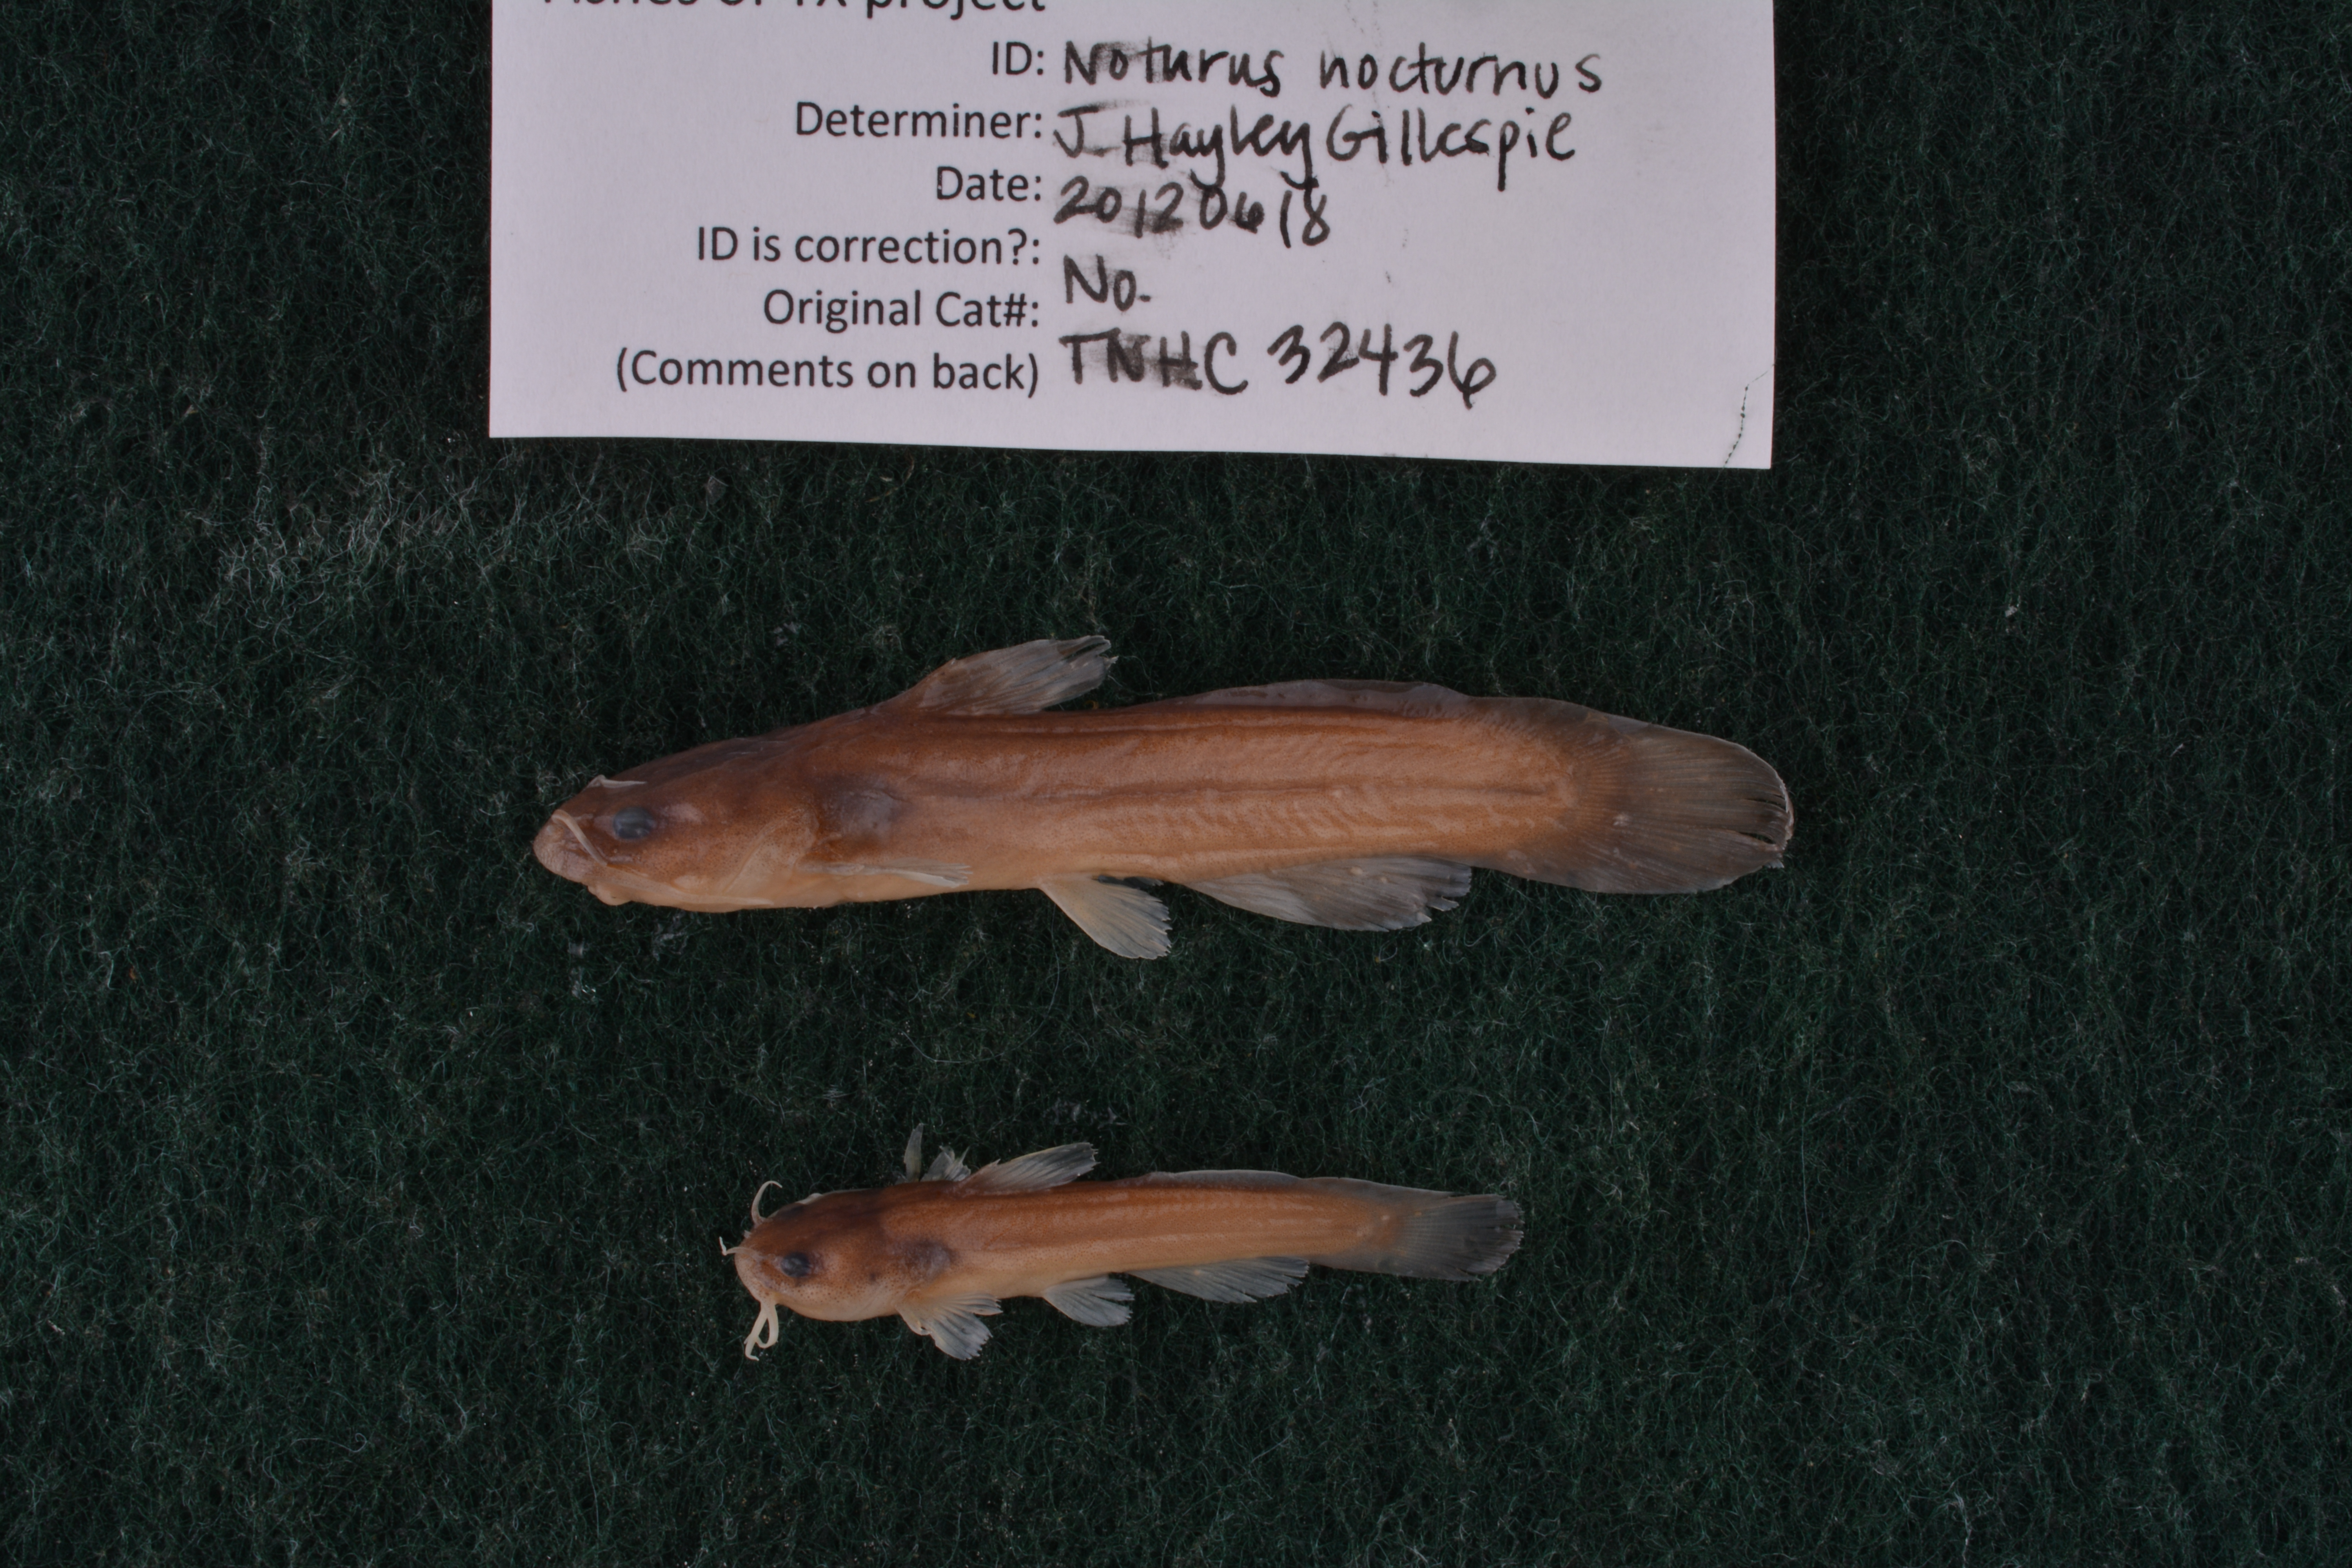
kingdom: Animalia
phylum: Chordata
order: Siluriformes
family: Ictaluridae
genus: Noturus
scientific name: Noturus nocturnus
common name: Freckled madtom
